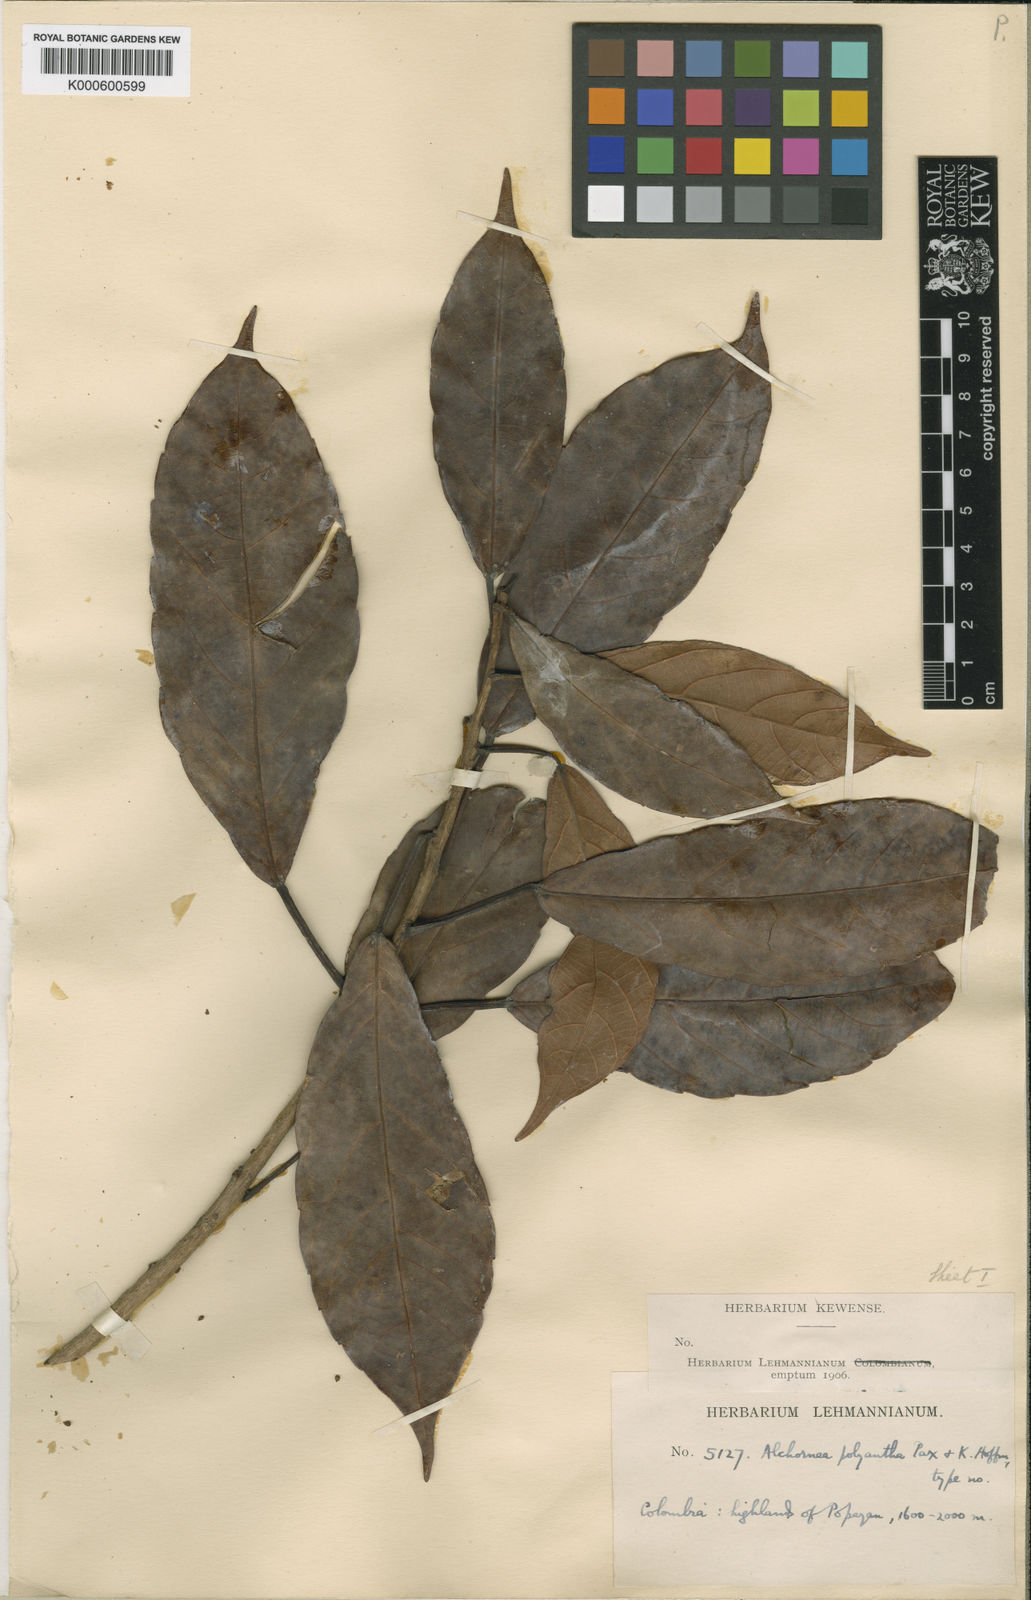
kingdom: Plantae
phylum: Tracheophyta
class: Magnoliopsida
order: Malpighiales
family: Euphorbiaceae
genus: Alchornea
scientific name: Alchornea latifolia
